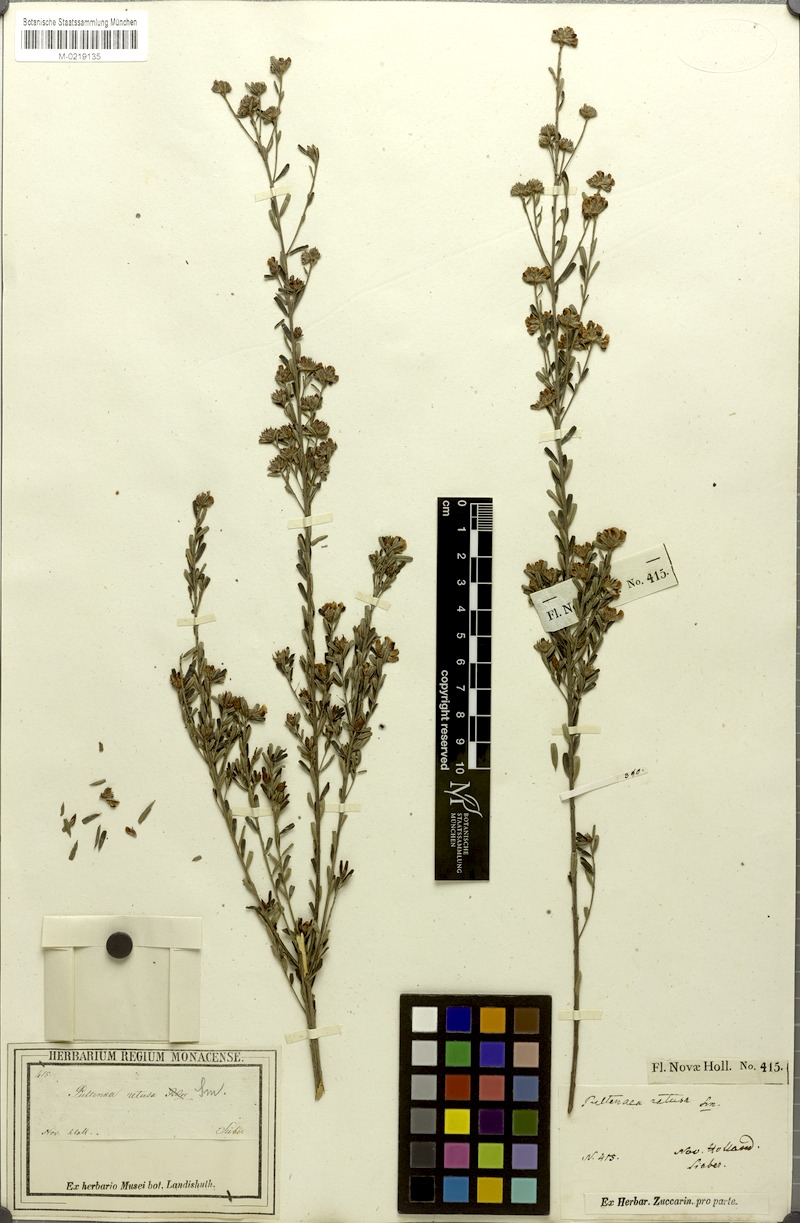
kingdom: Plantae
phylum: Tracheophyta
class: Magnoliopsida
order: Fabales
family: Fabaceae
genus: Pultenaea
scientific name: Pultenaea linophylla
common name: Halo bush-pea
